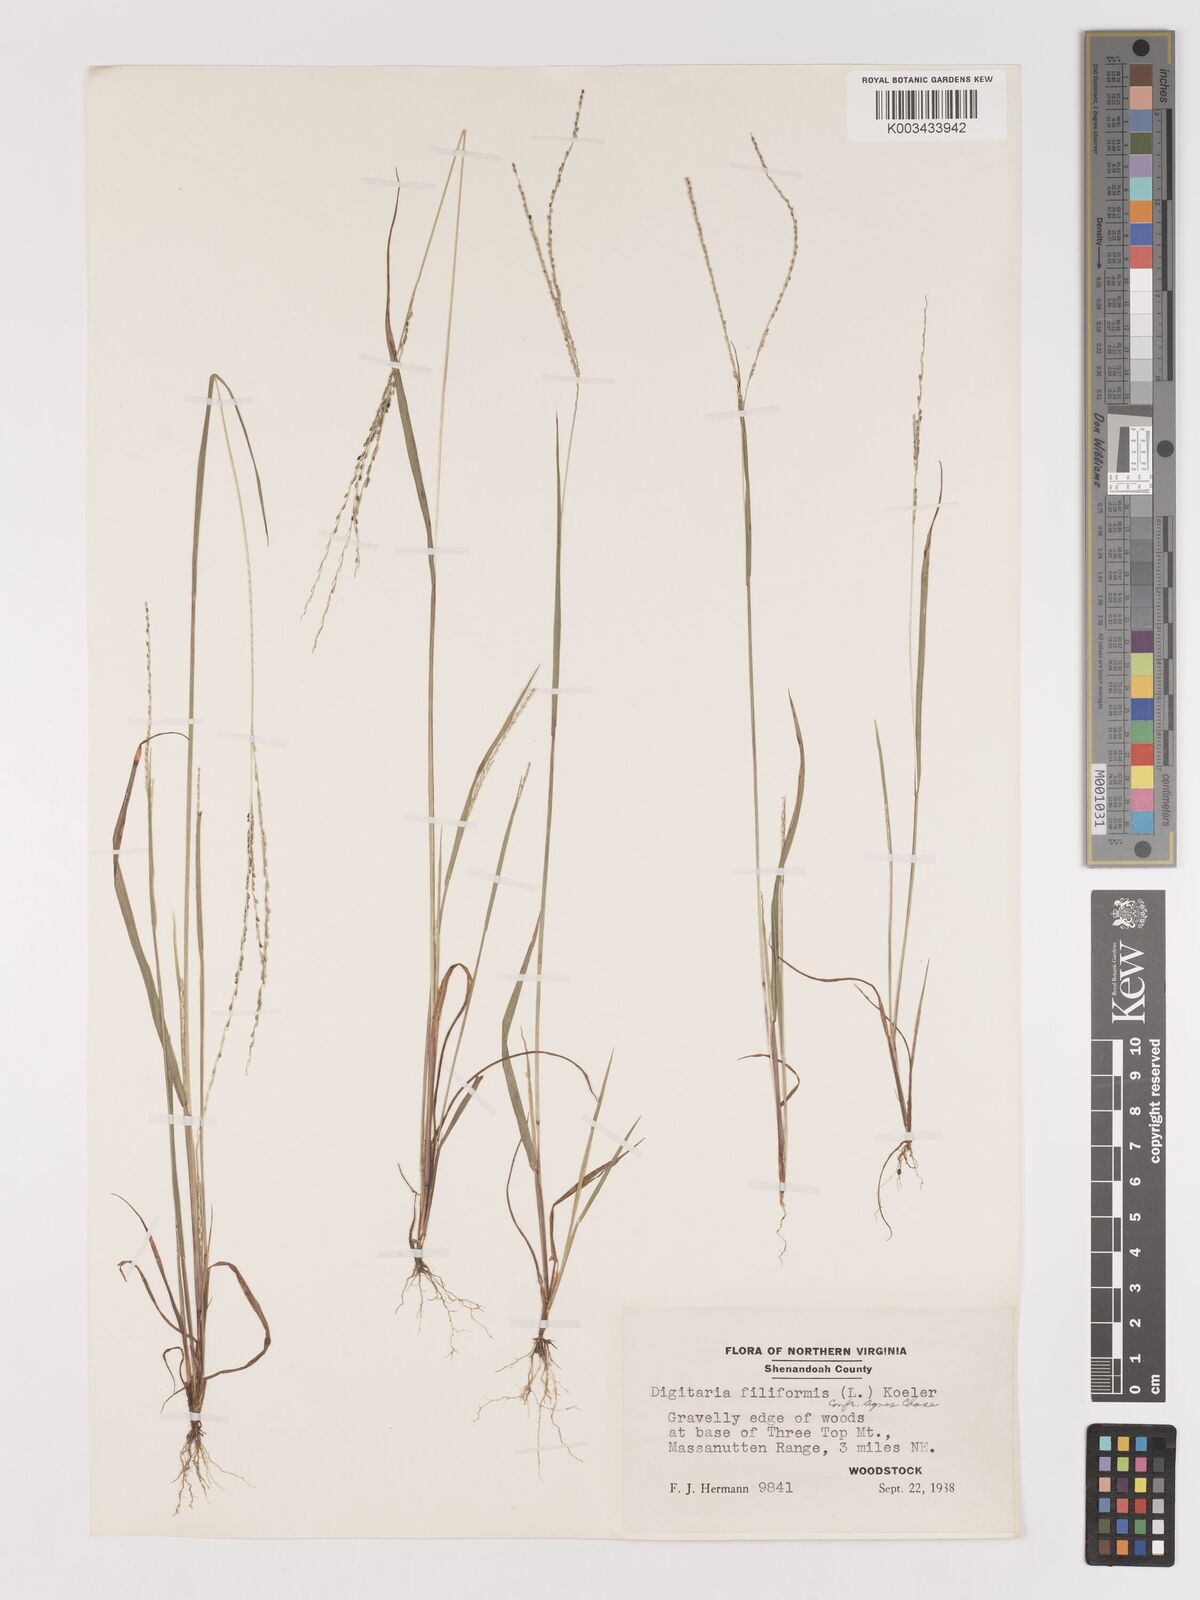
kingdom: Plantae
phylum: Tracheophyta
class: Liliopsida
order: Poales
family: Poaceae
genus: Digitaria
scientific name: Digitaria filiformis
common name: Slender crabgrass
